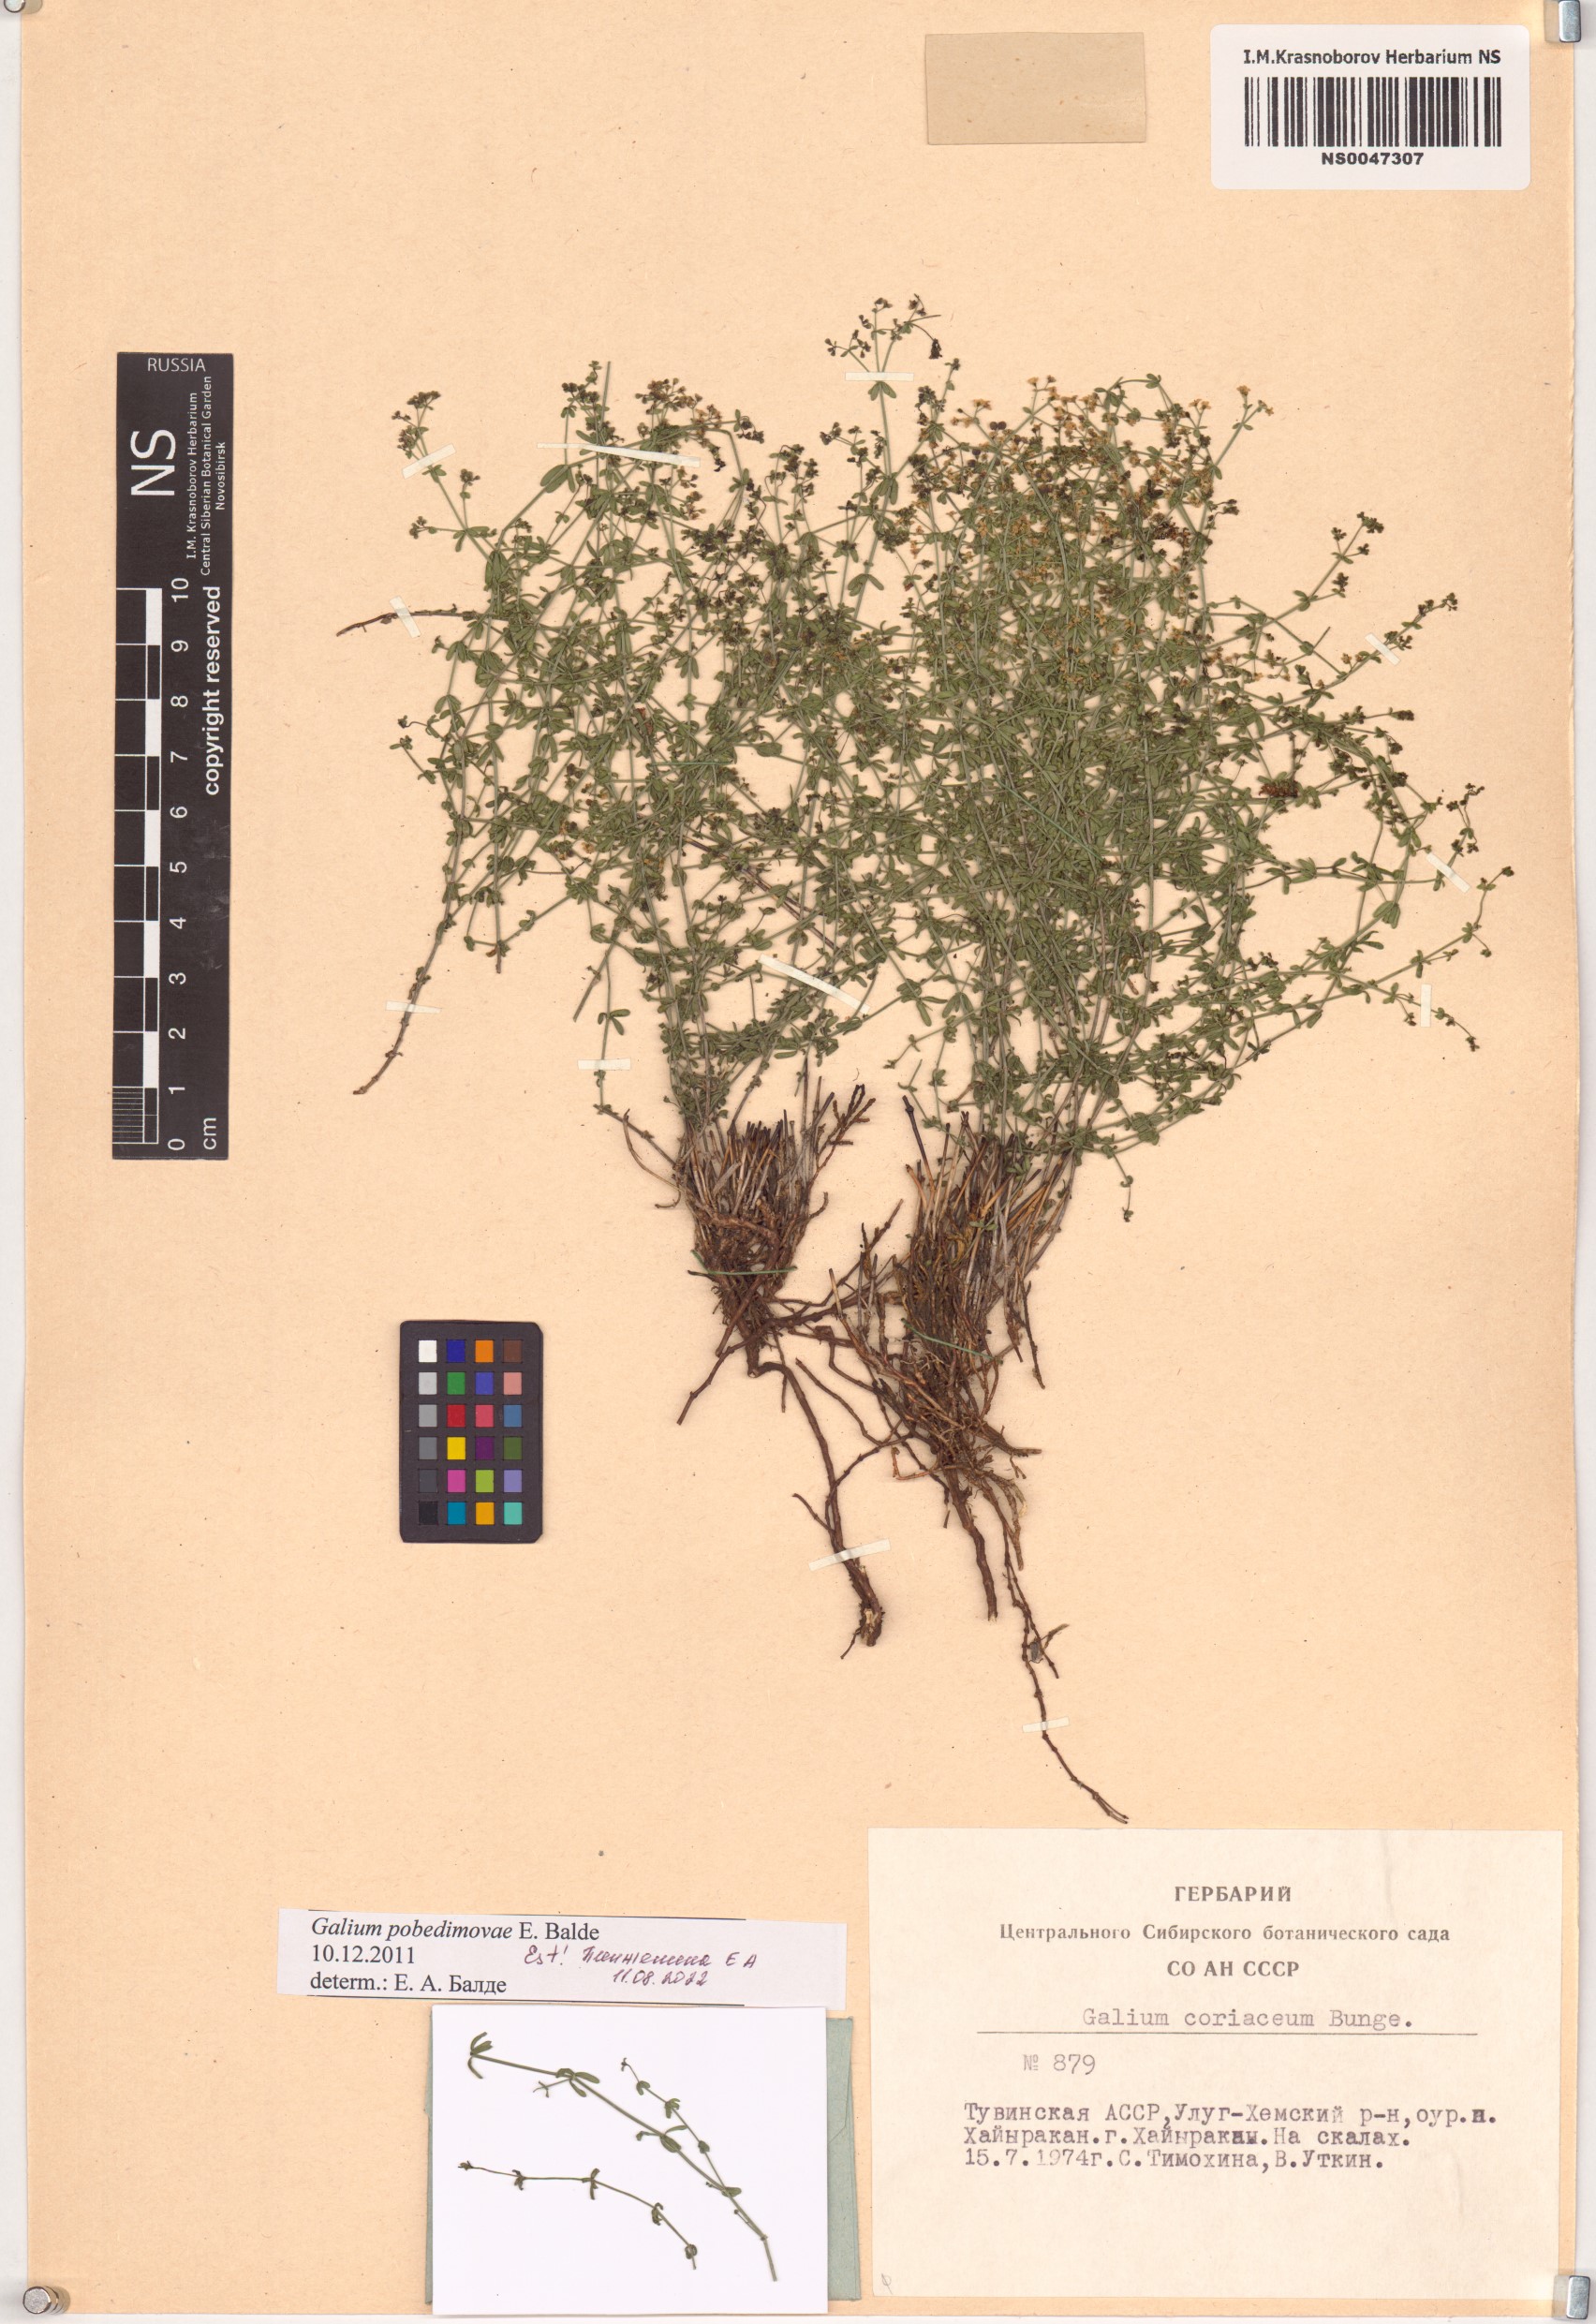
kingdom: Plantae
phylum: Tracheophyta
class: Magnoliopsida
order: Gentianales
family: Rubiaceae
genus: Galium
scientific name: Galium pobedimovae
